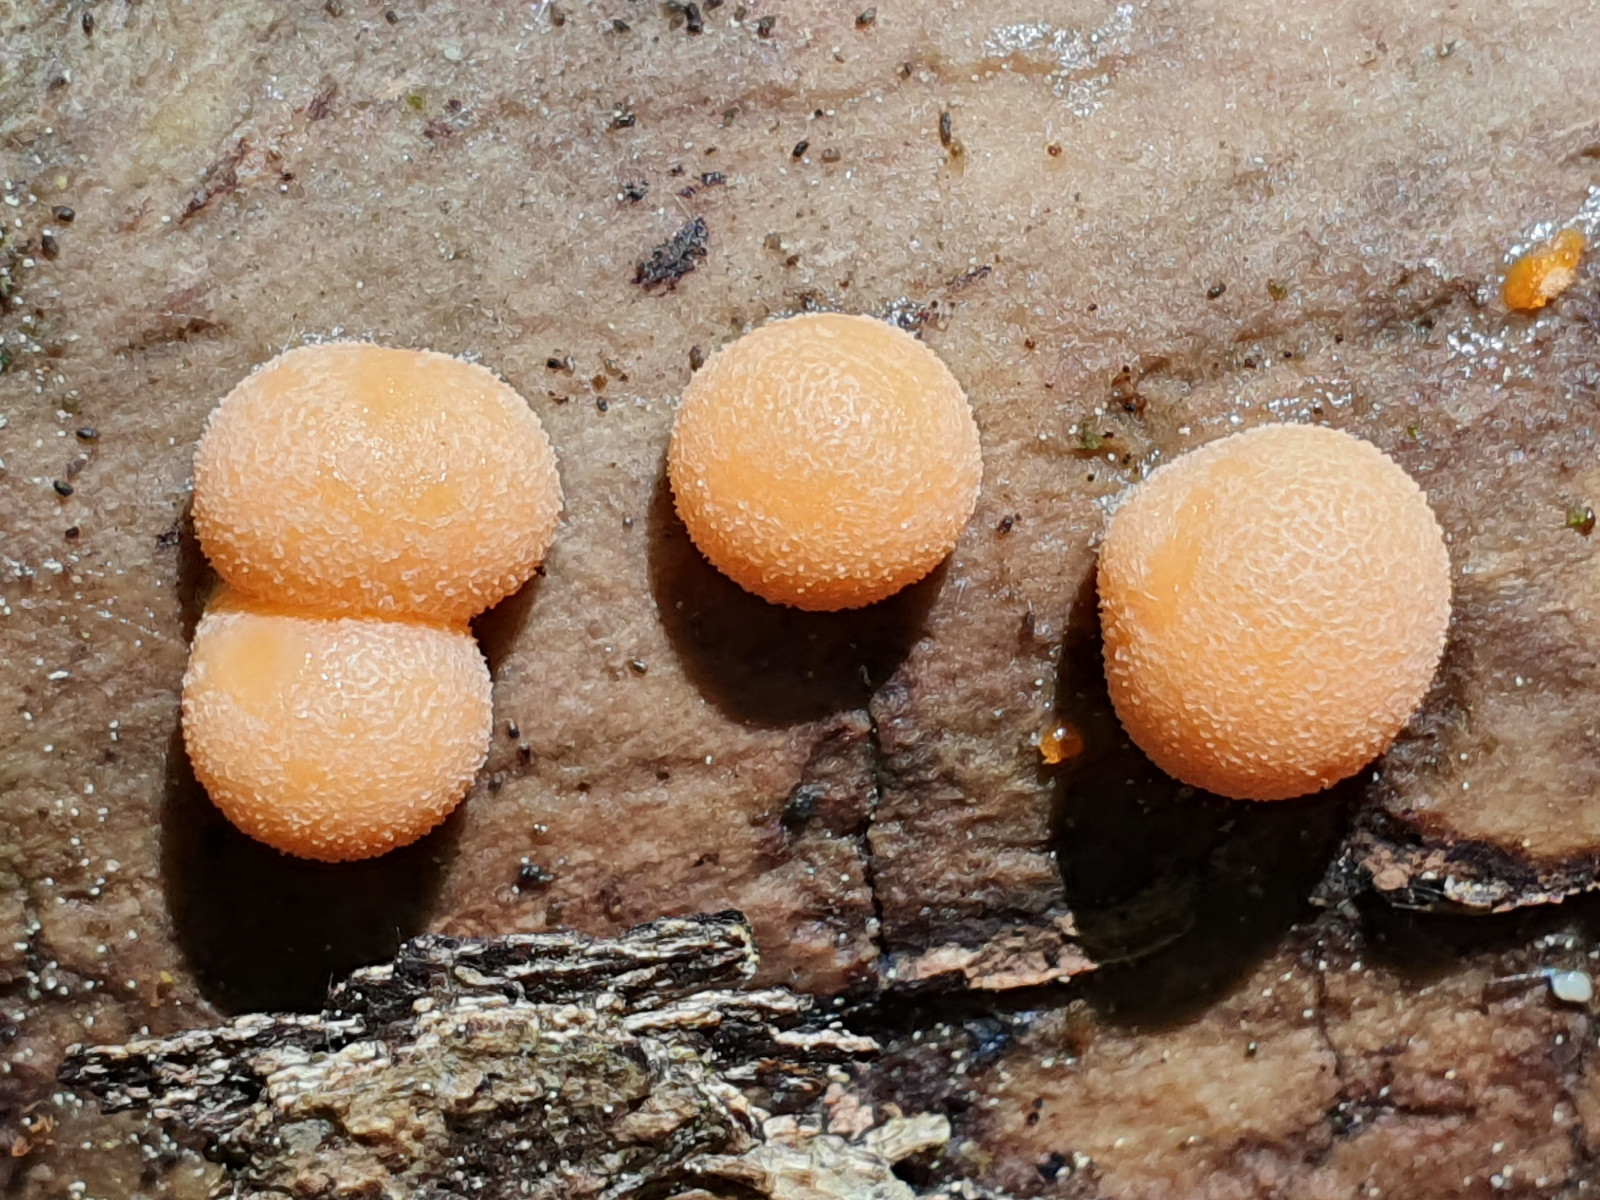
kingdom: Protozoa
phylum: Mycetozoa
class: Myxomycetes
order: Cribrariales
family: Tubiferaceae
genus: Lycogala
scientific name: Lycogala epidendrum
